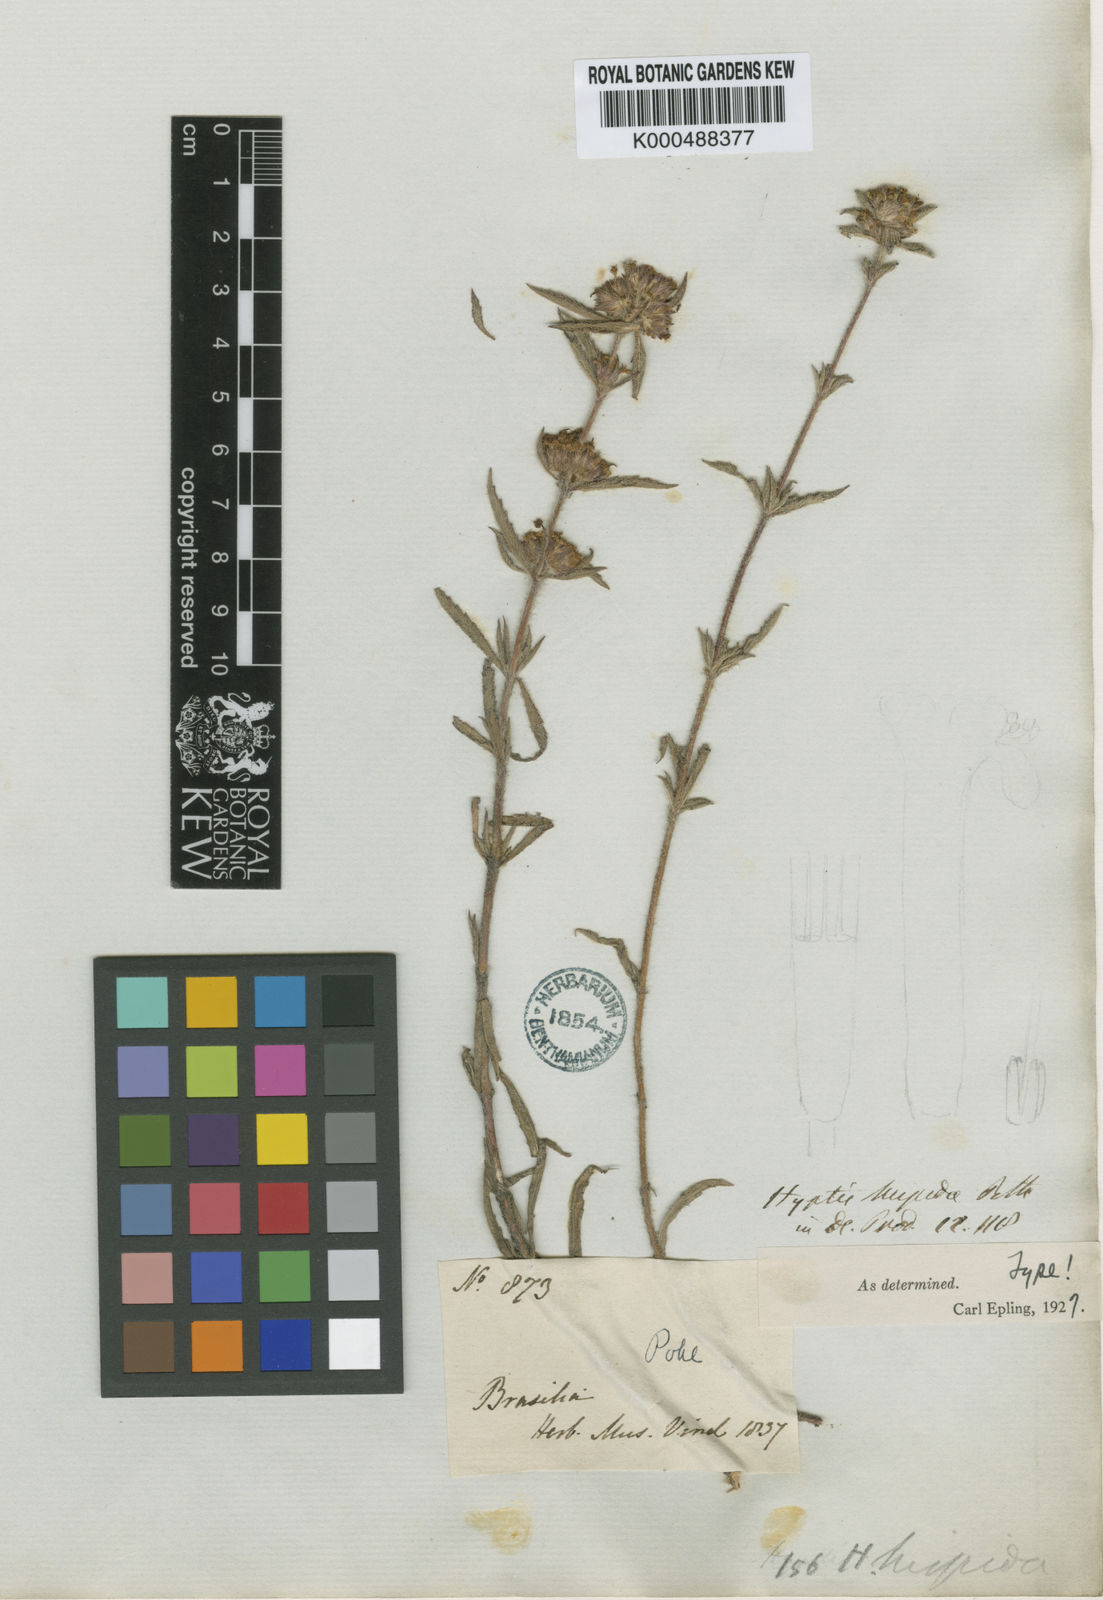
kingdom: Plantae
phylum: Tracheophyta
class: Magnoliopsida
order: Lamiales
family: Lamiaceae
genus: Hyptis
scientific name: Hyptis hispida
